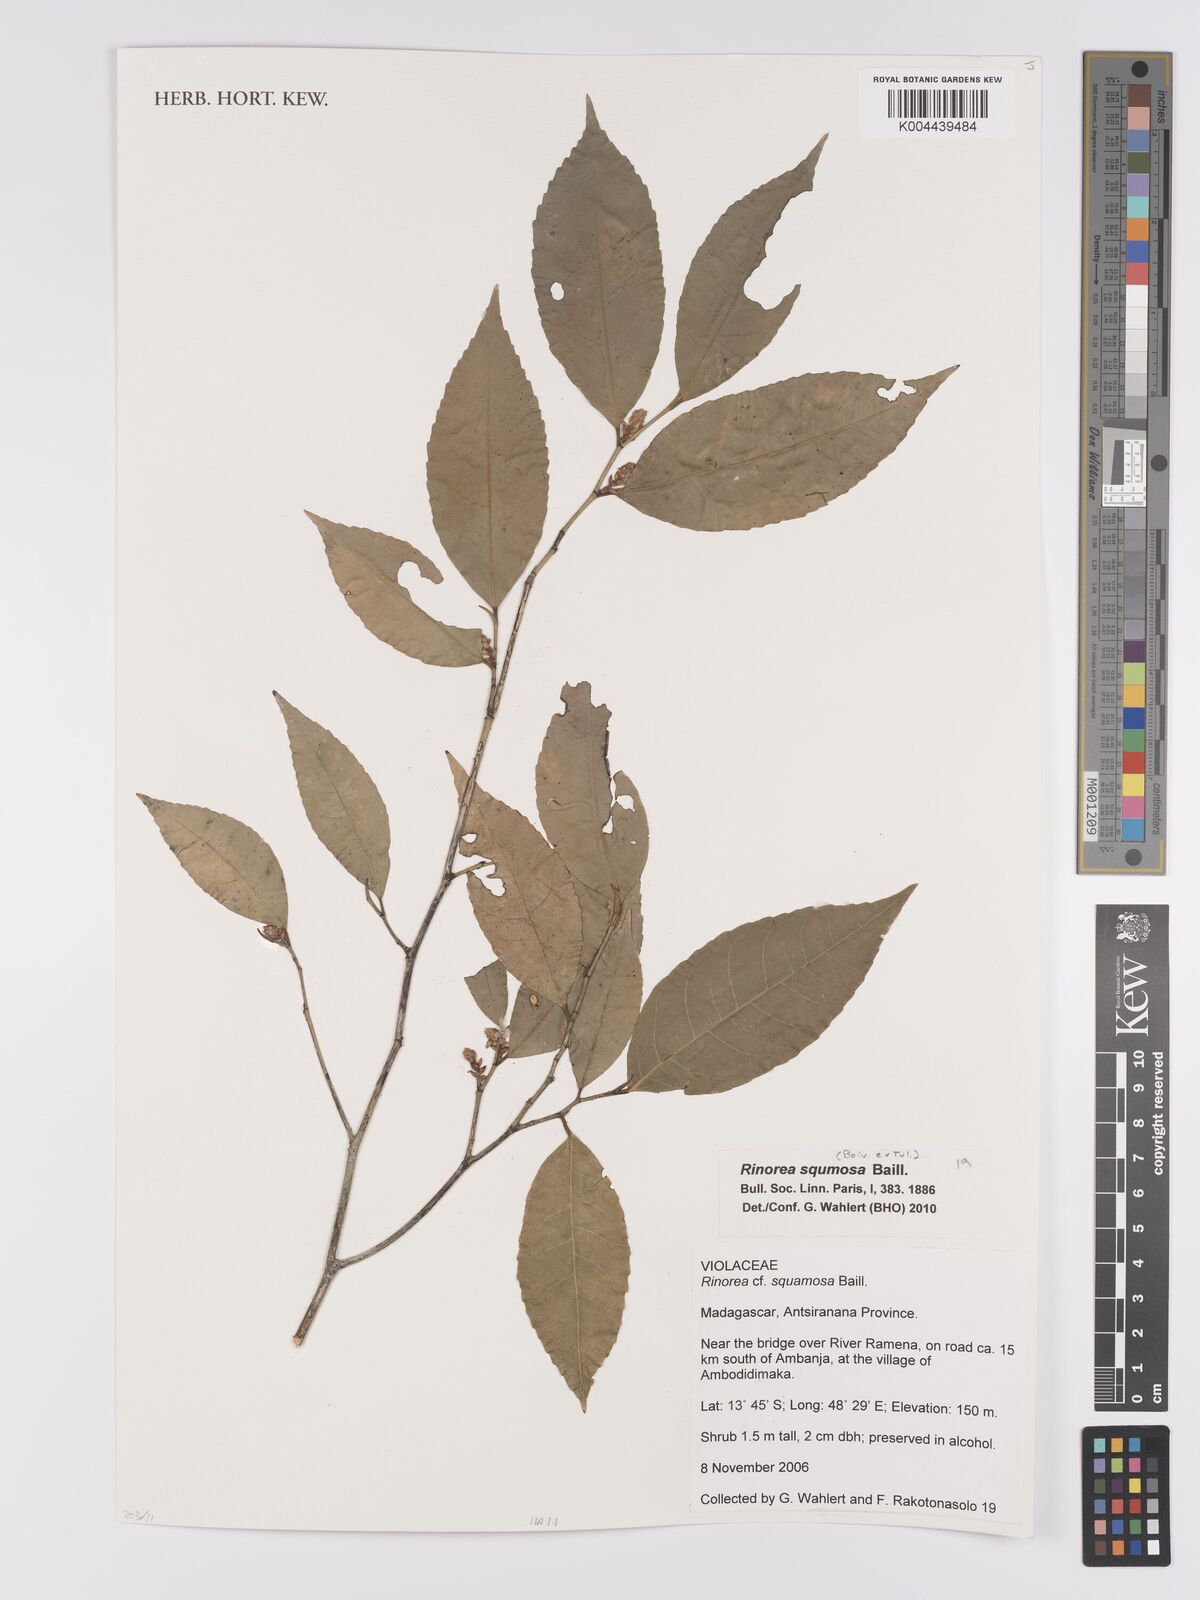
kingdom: Plantae
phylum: Tracheophyta
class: Magnoliopsida
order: Malpighiales
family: Violaceae
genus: Rinorea
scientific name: Rinorea squamosa
